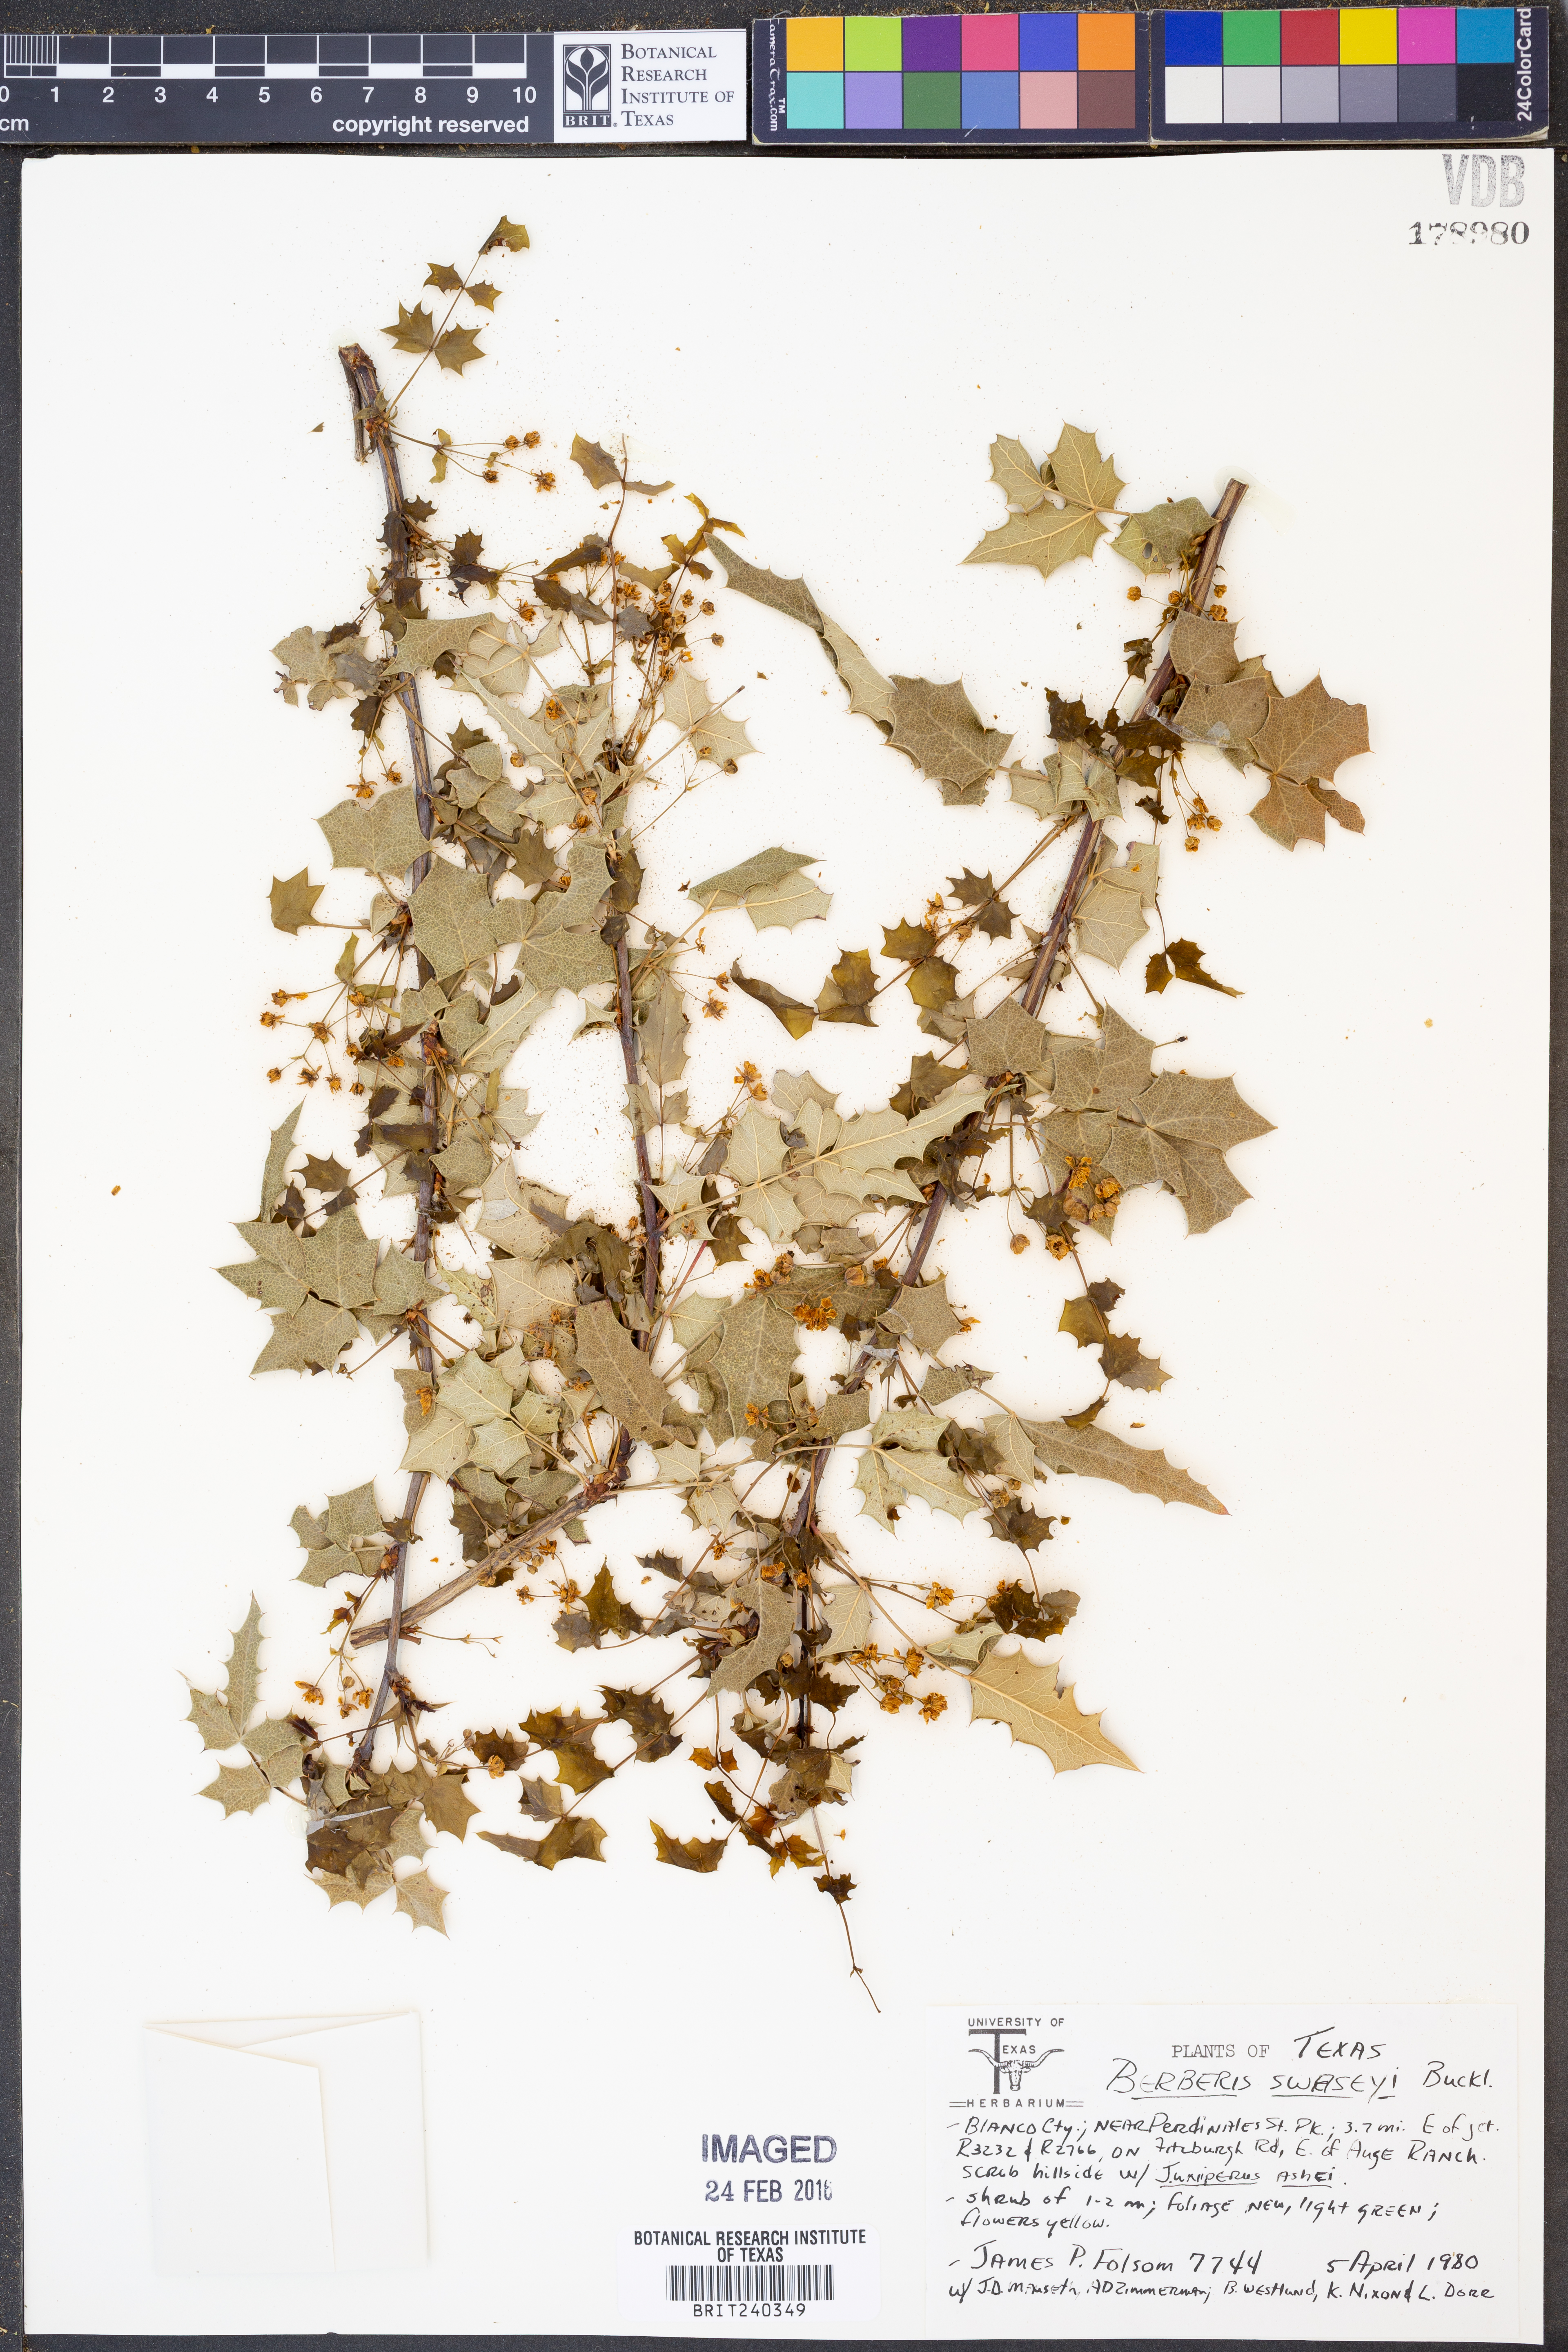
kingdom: Plantae
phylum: Tracheophyta
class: Magnoliopsida
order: Ranunculales
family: Berberidaceae
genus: Berberis
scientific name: Berberis swaseyi
